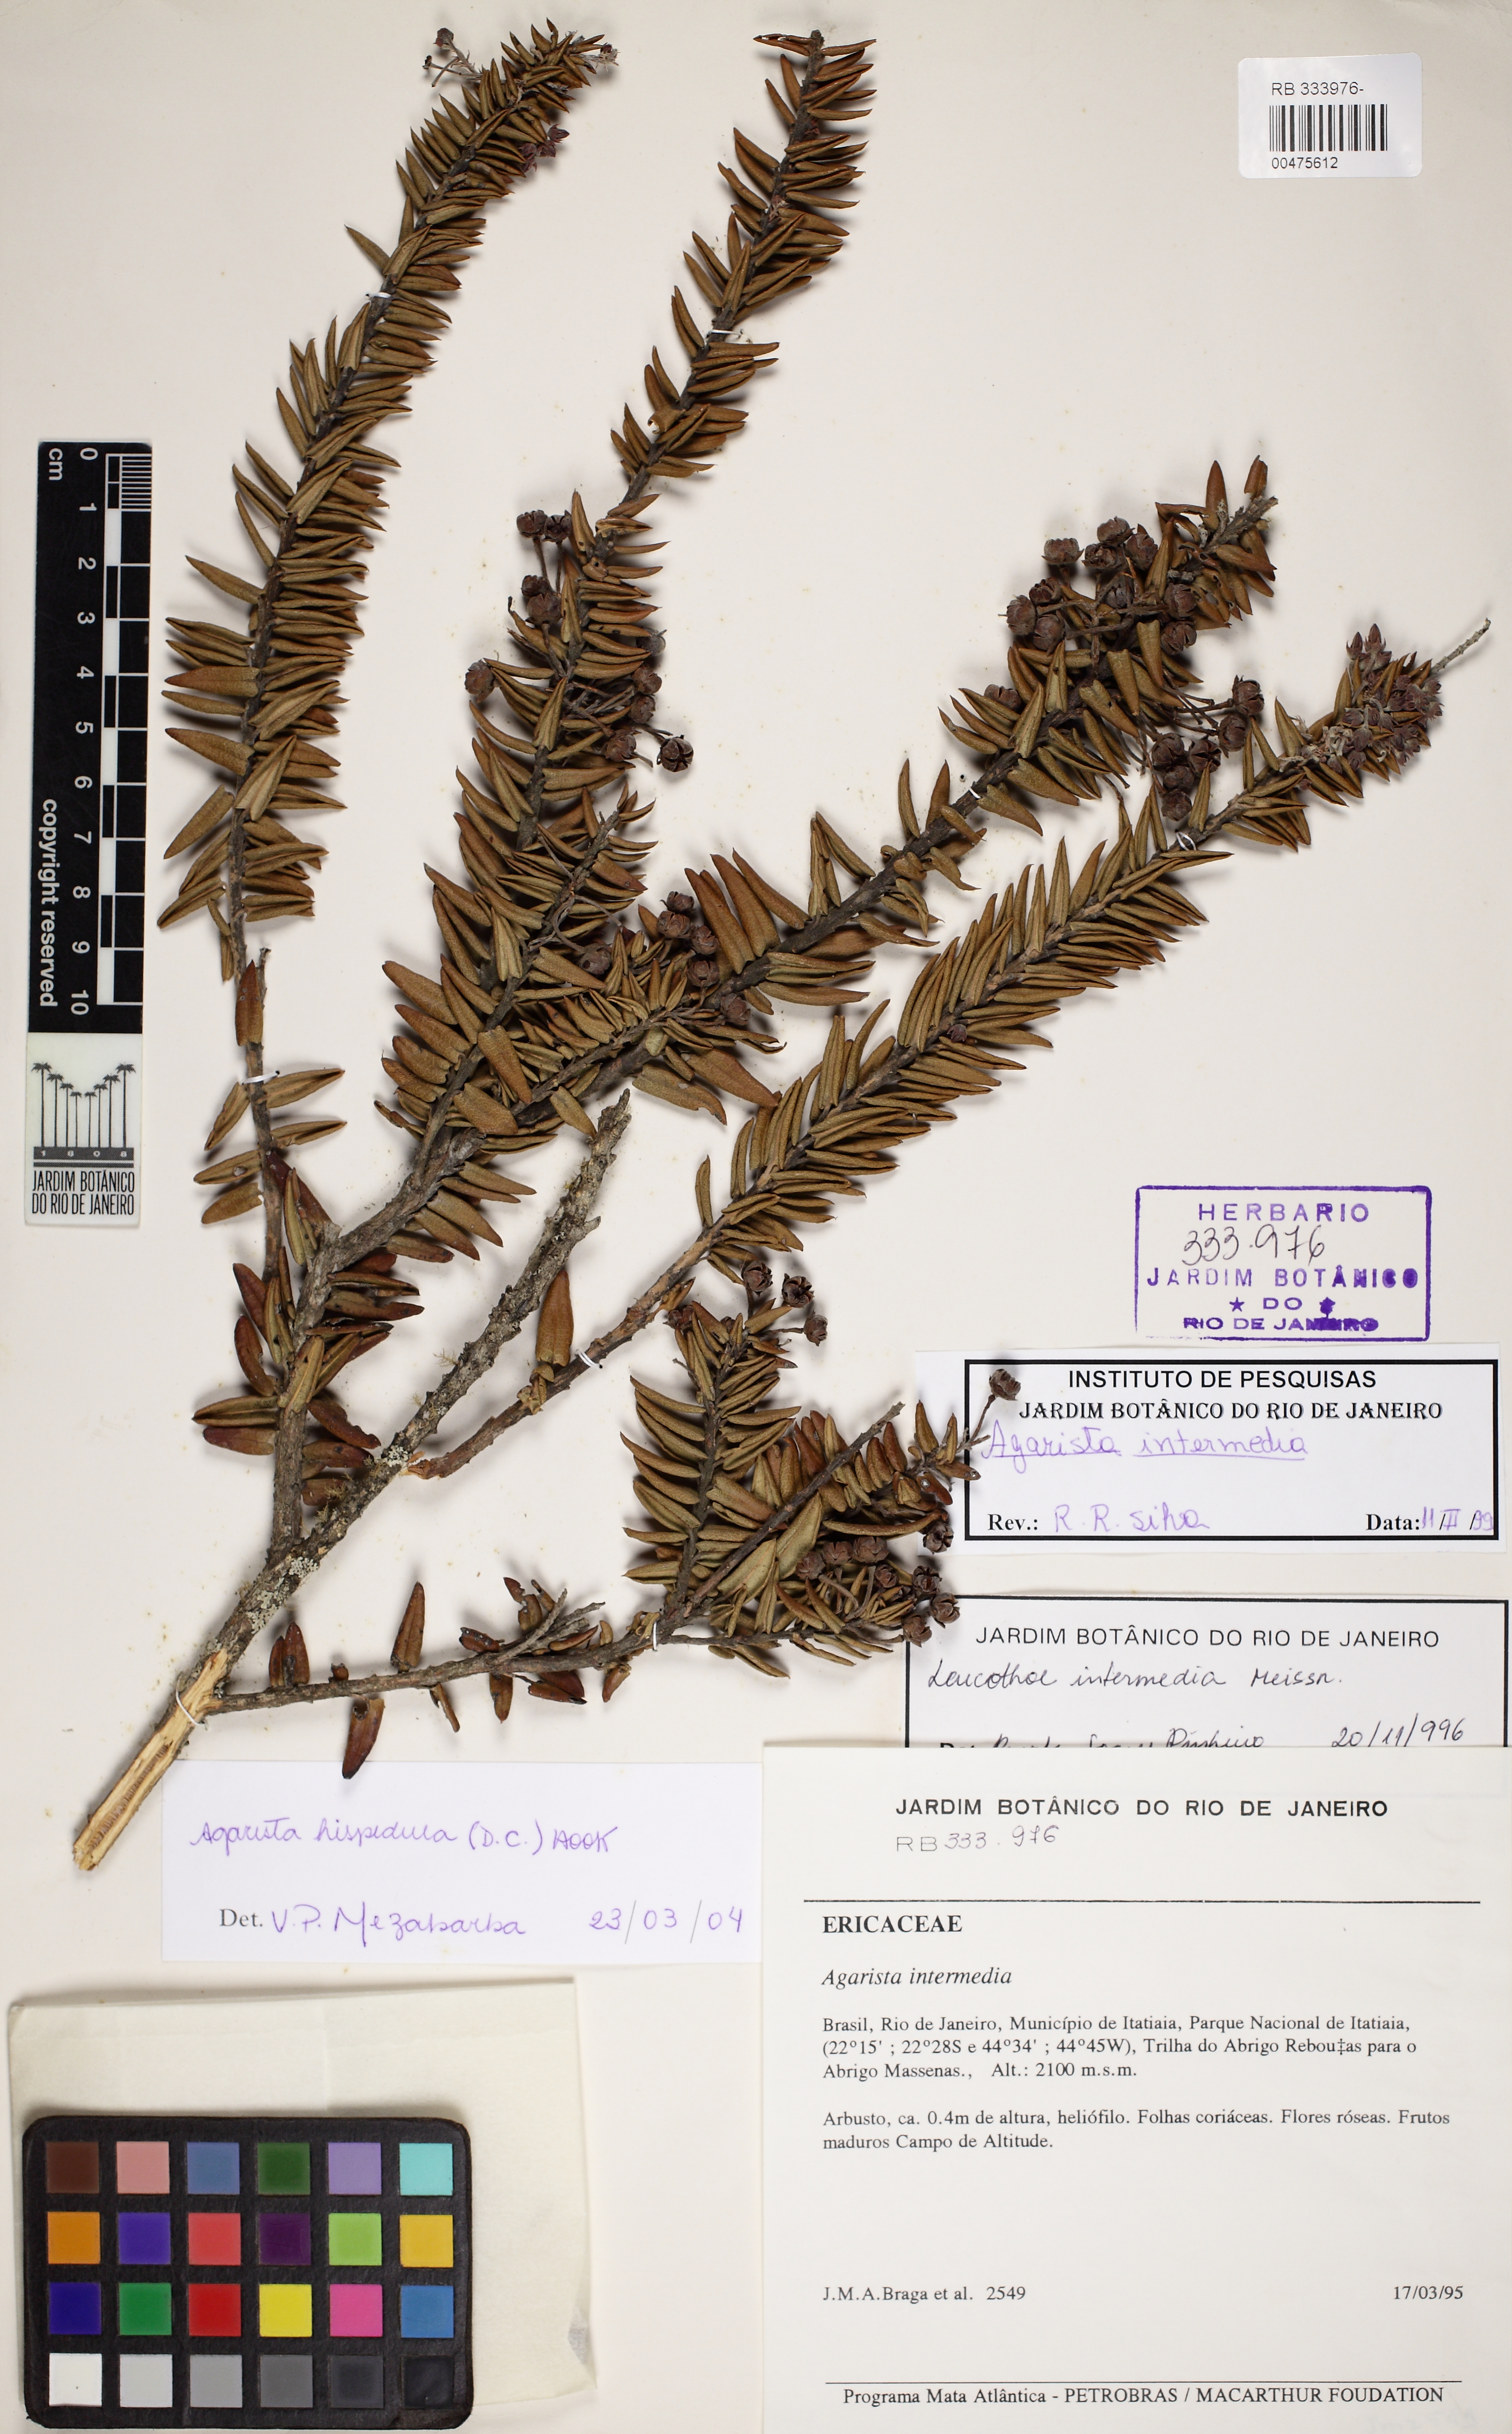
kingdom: Plantae
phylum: Tracheophyta
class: Magnoliopsida
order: Ericales
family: Ericaceae
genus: Agarista
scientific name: Agarista hispidula
